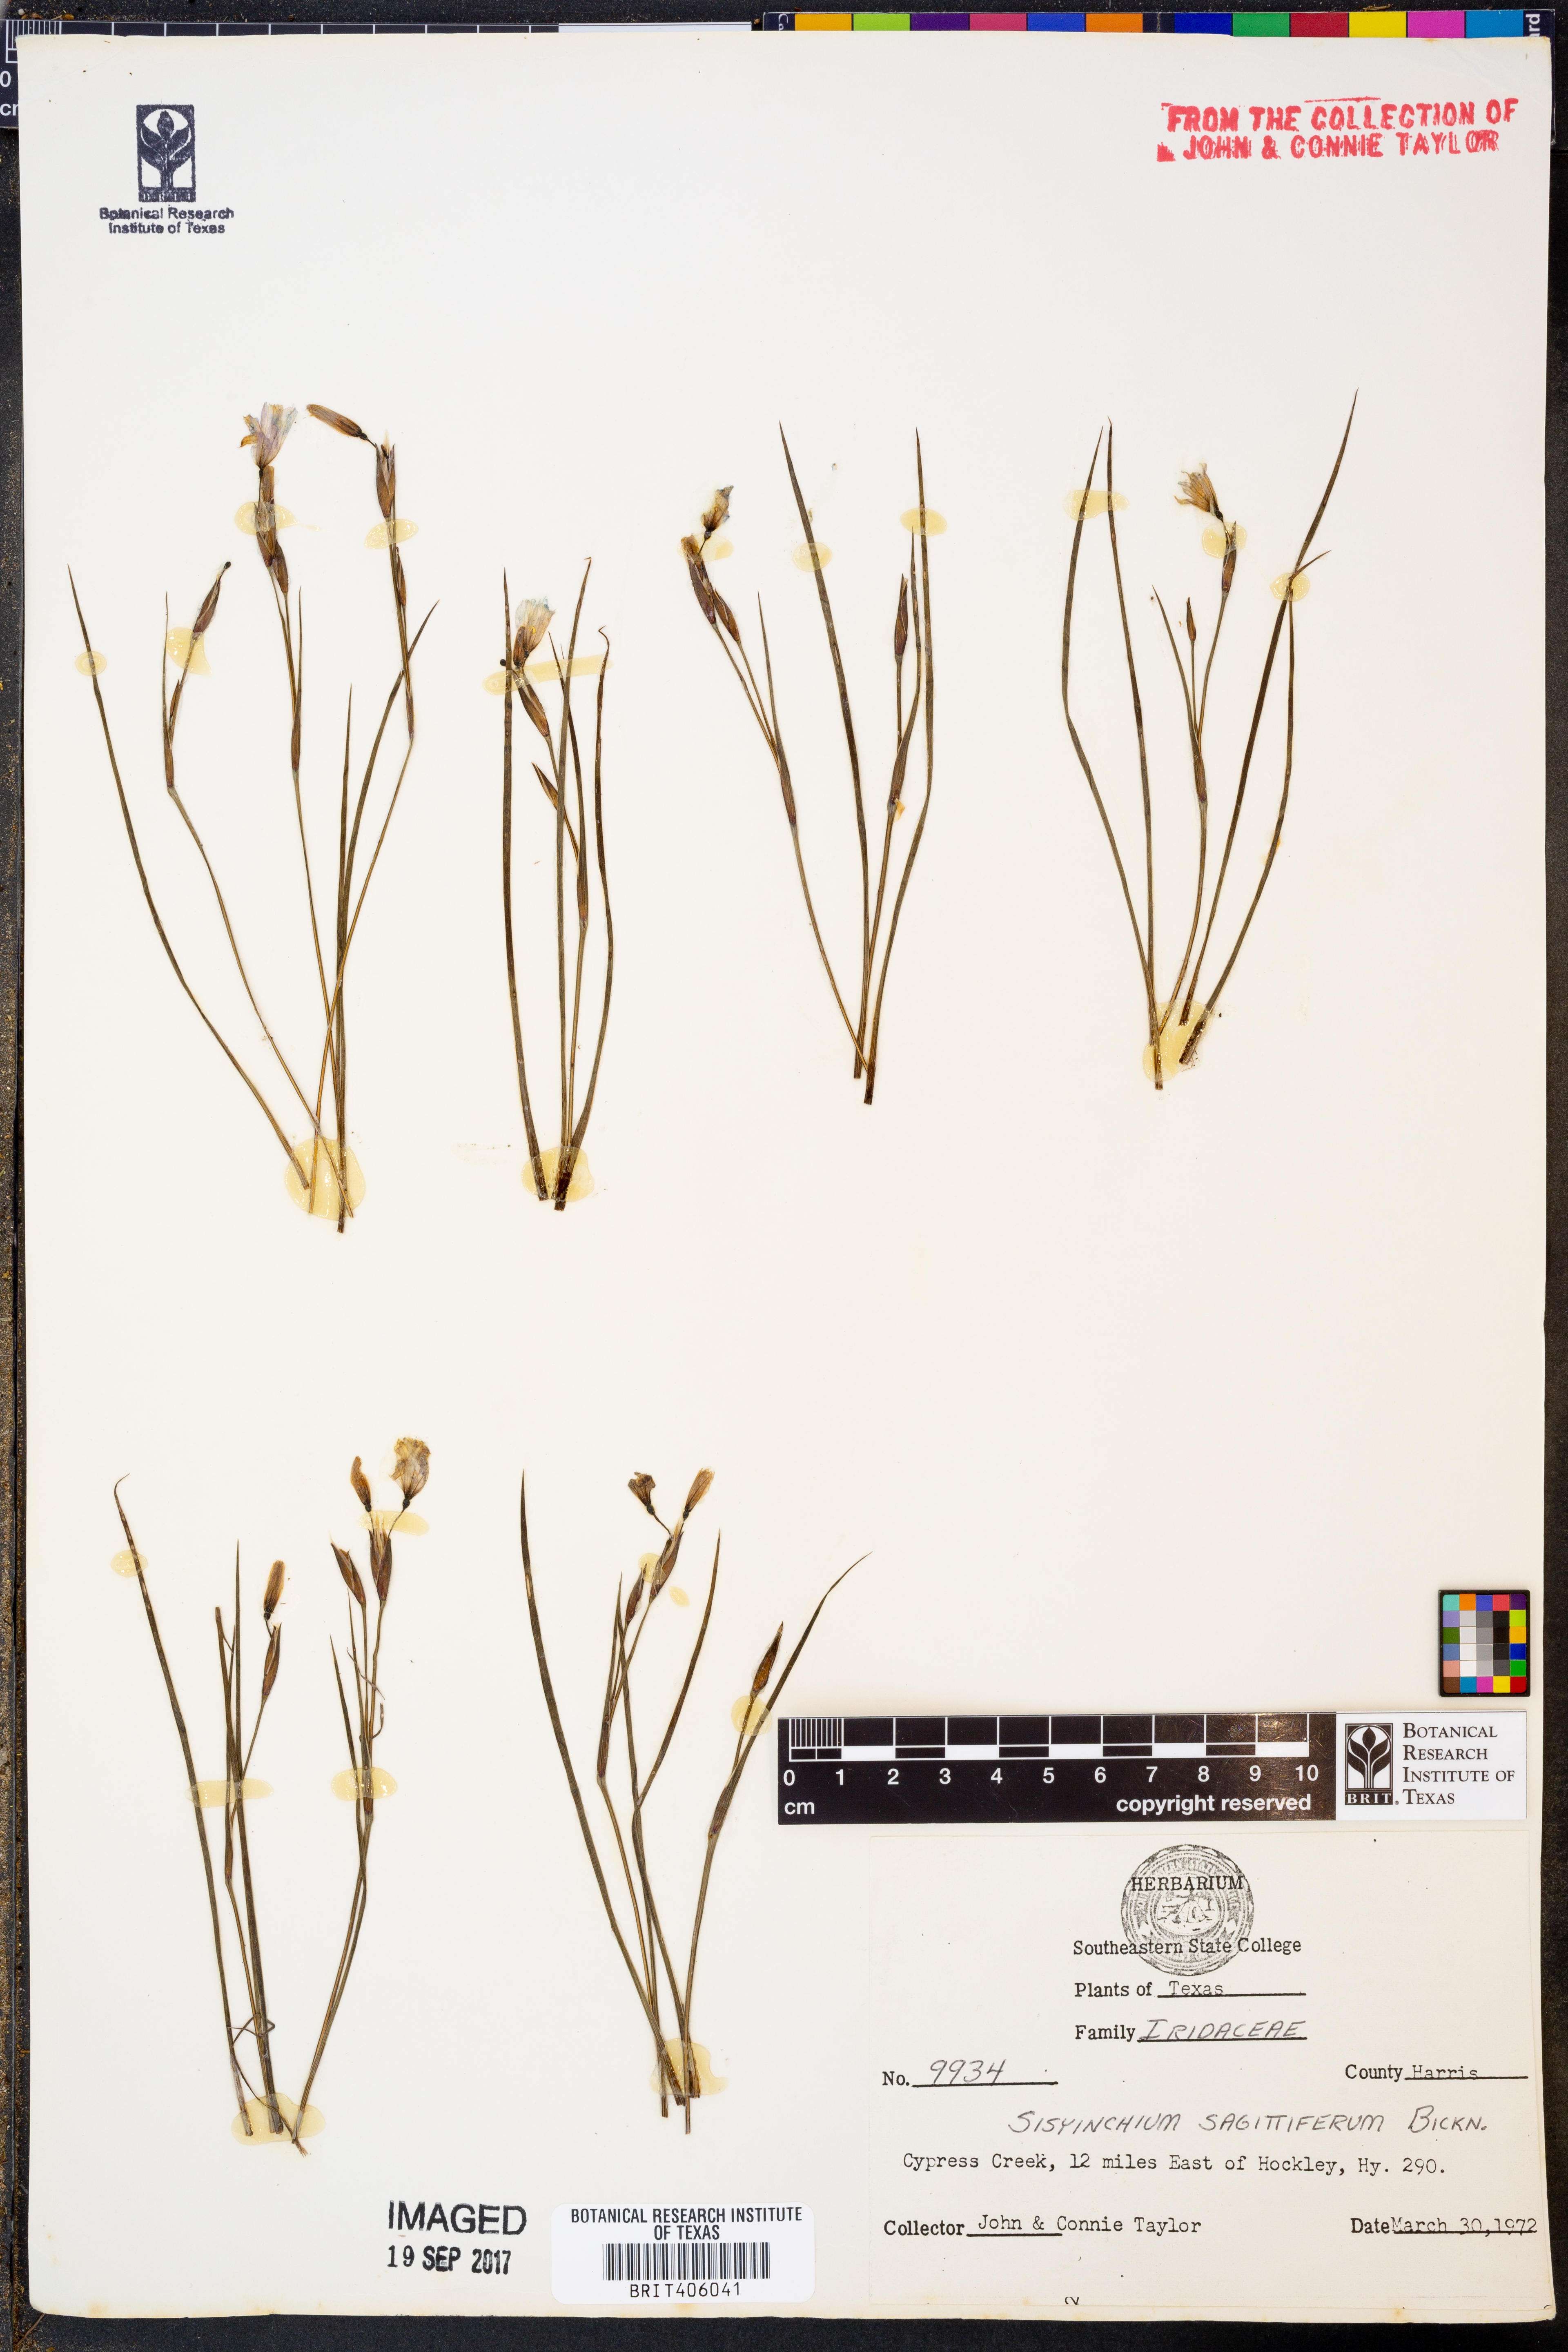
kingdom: Plantae
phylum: Tracheophyta
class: Liliopsida
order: Asparagales
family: Iridaceae
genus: Sisyrinchium
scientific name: Sisyrinchium sagittiferum
